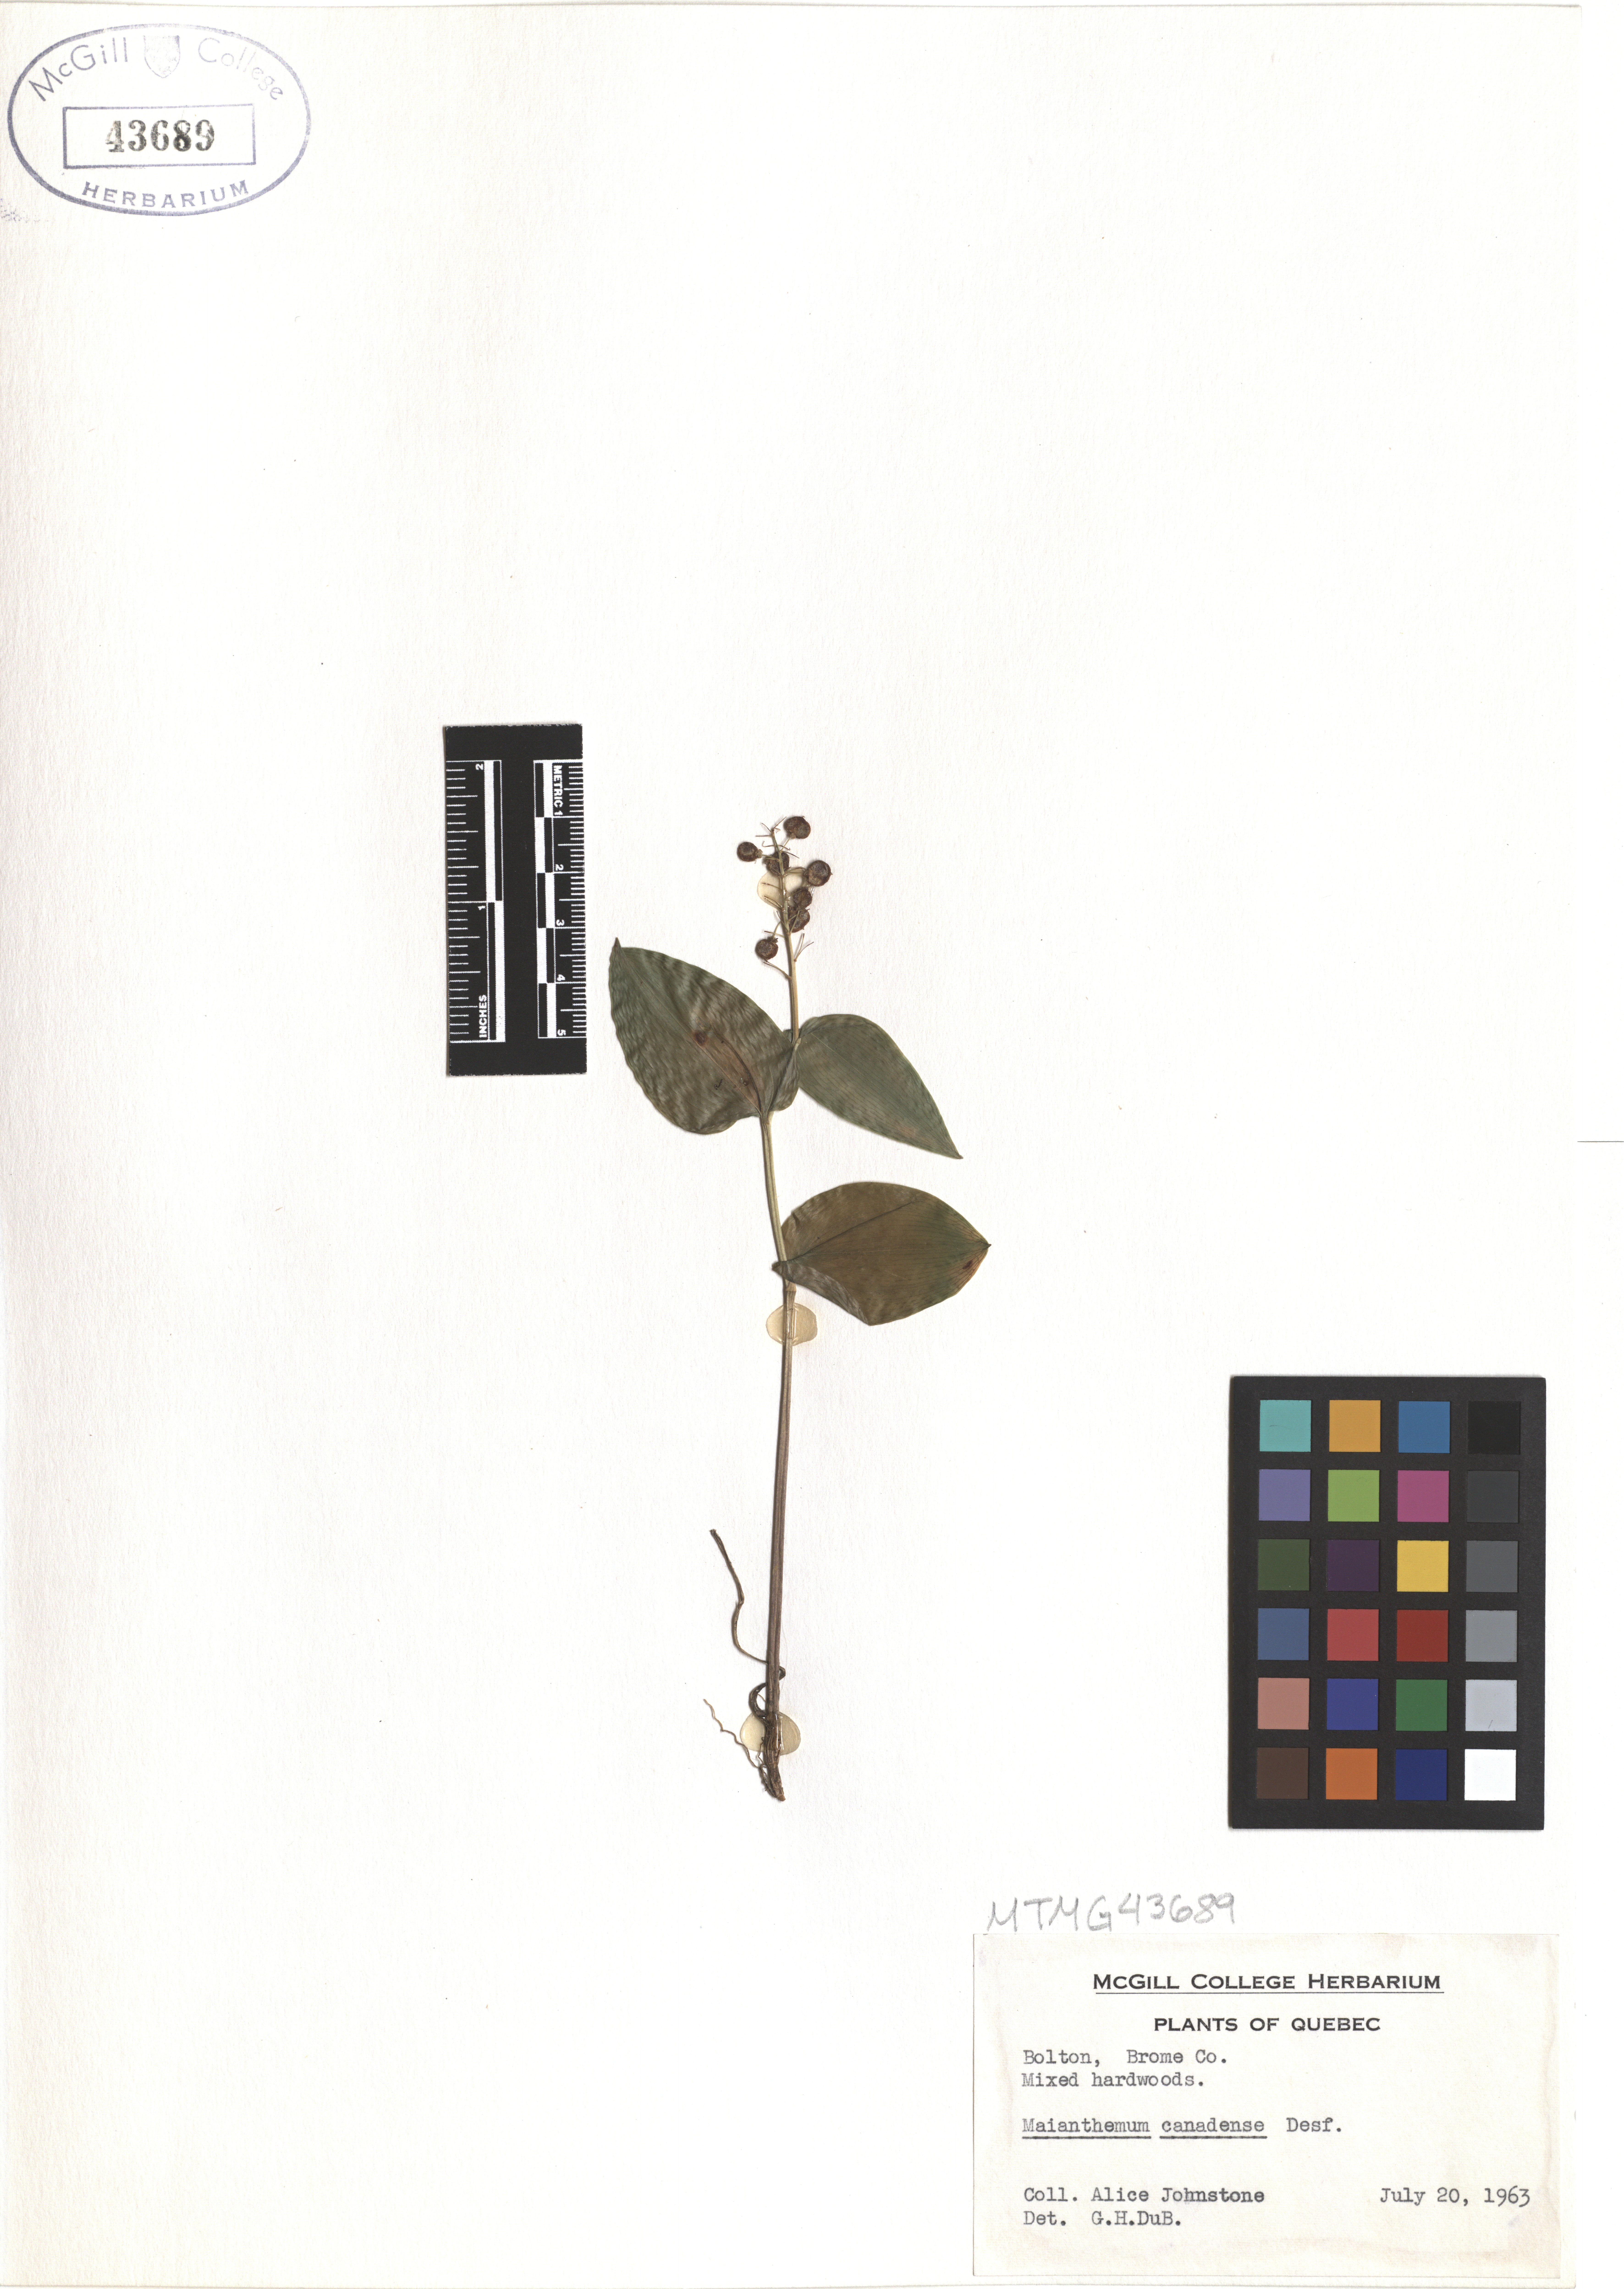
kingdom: Plantae
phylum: Tracheophyta
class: Liliopsida
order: Asparagales
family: Asparagaceae
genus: Maianthemum
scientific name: Maianthemum canadense
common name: False lily-of-the-valley
